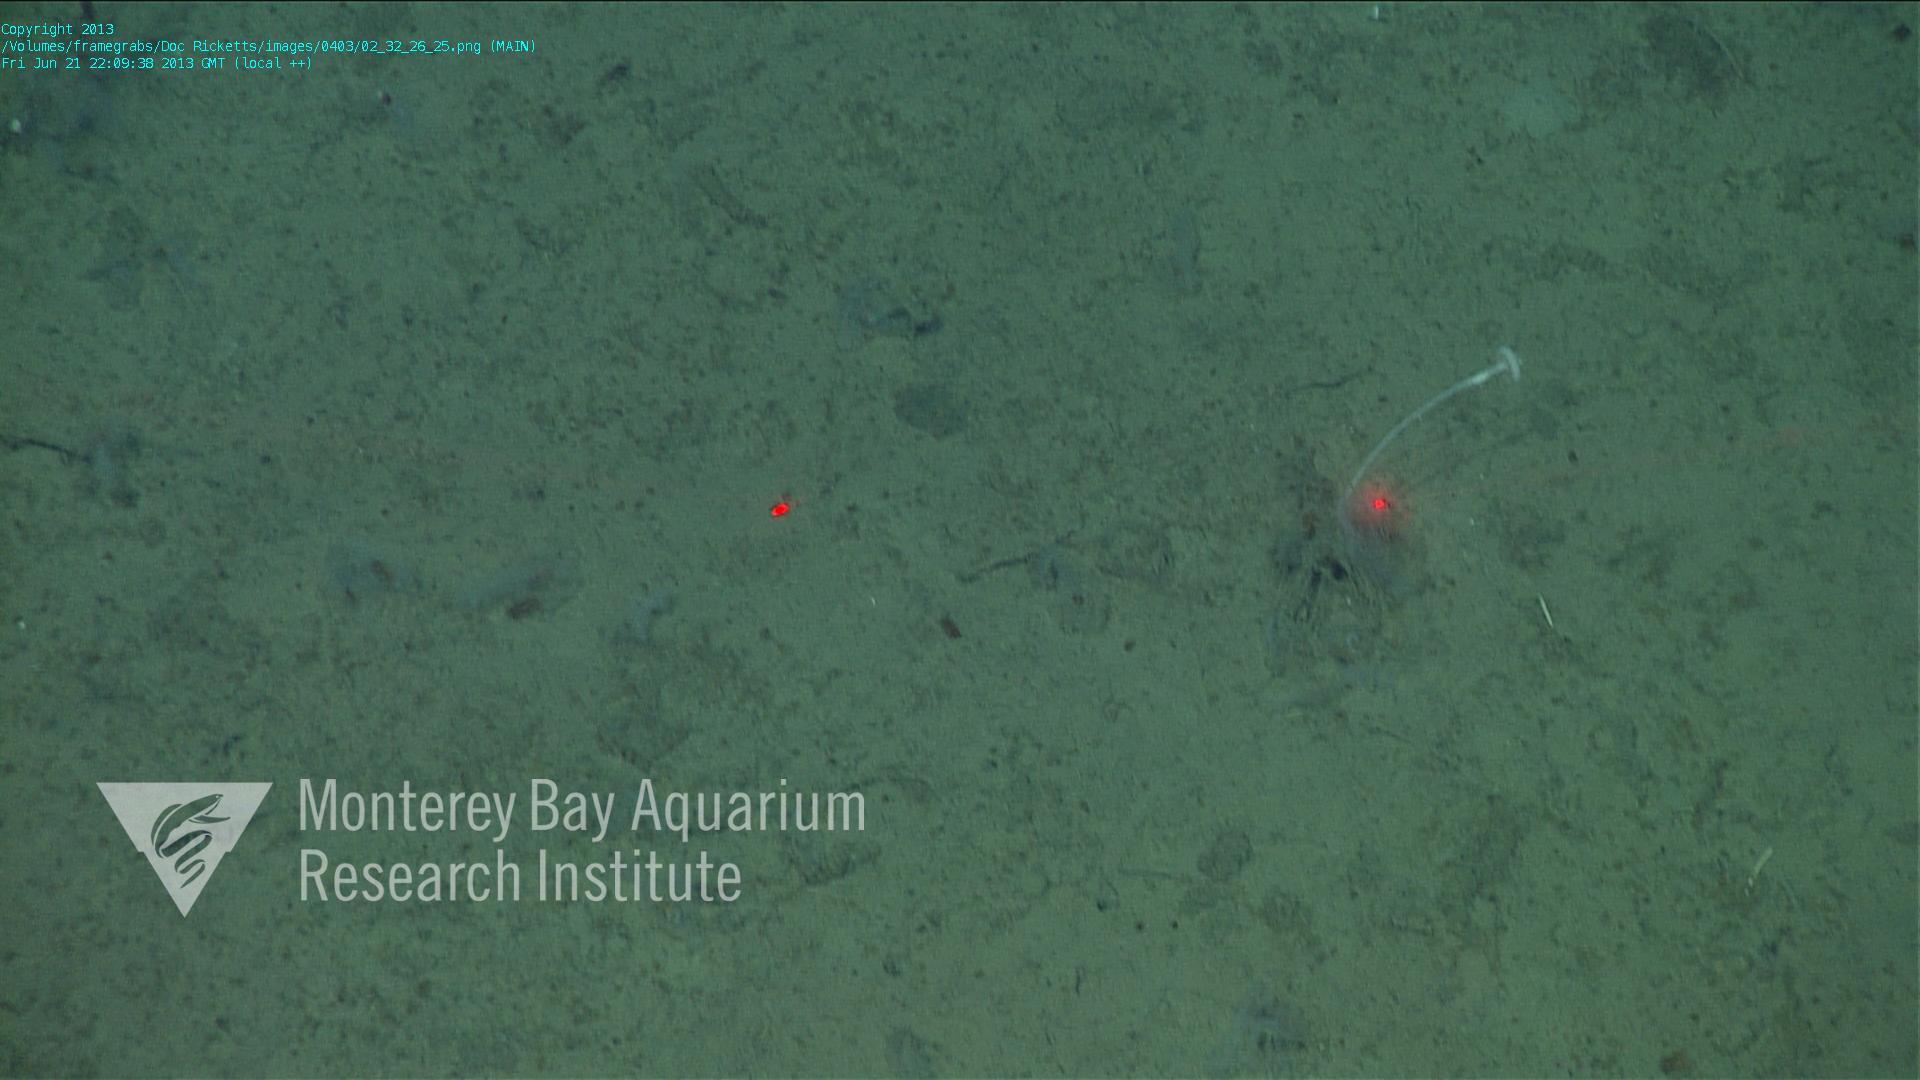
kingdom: Animalia
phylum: Porifera
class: Demospongiae
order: Poecilosclerida
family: Cladorhizidae
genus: Cladorhiza
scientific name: Cladorhiza
